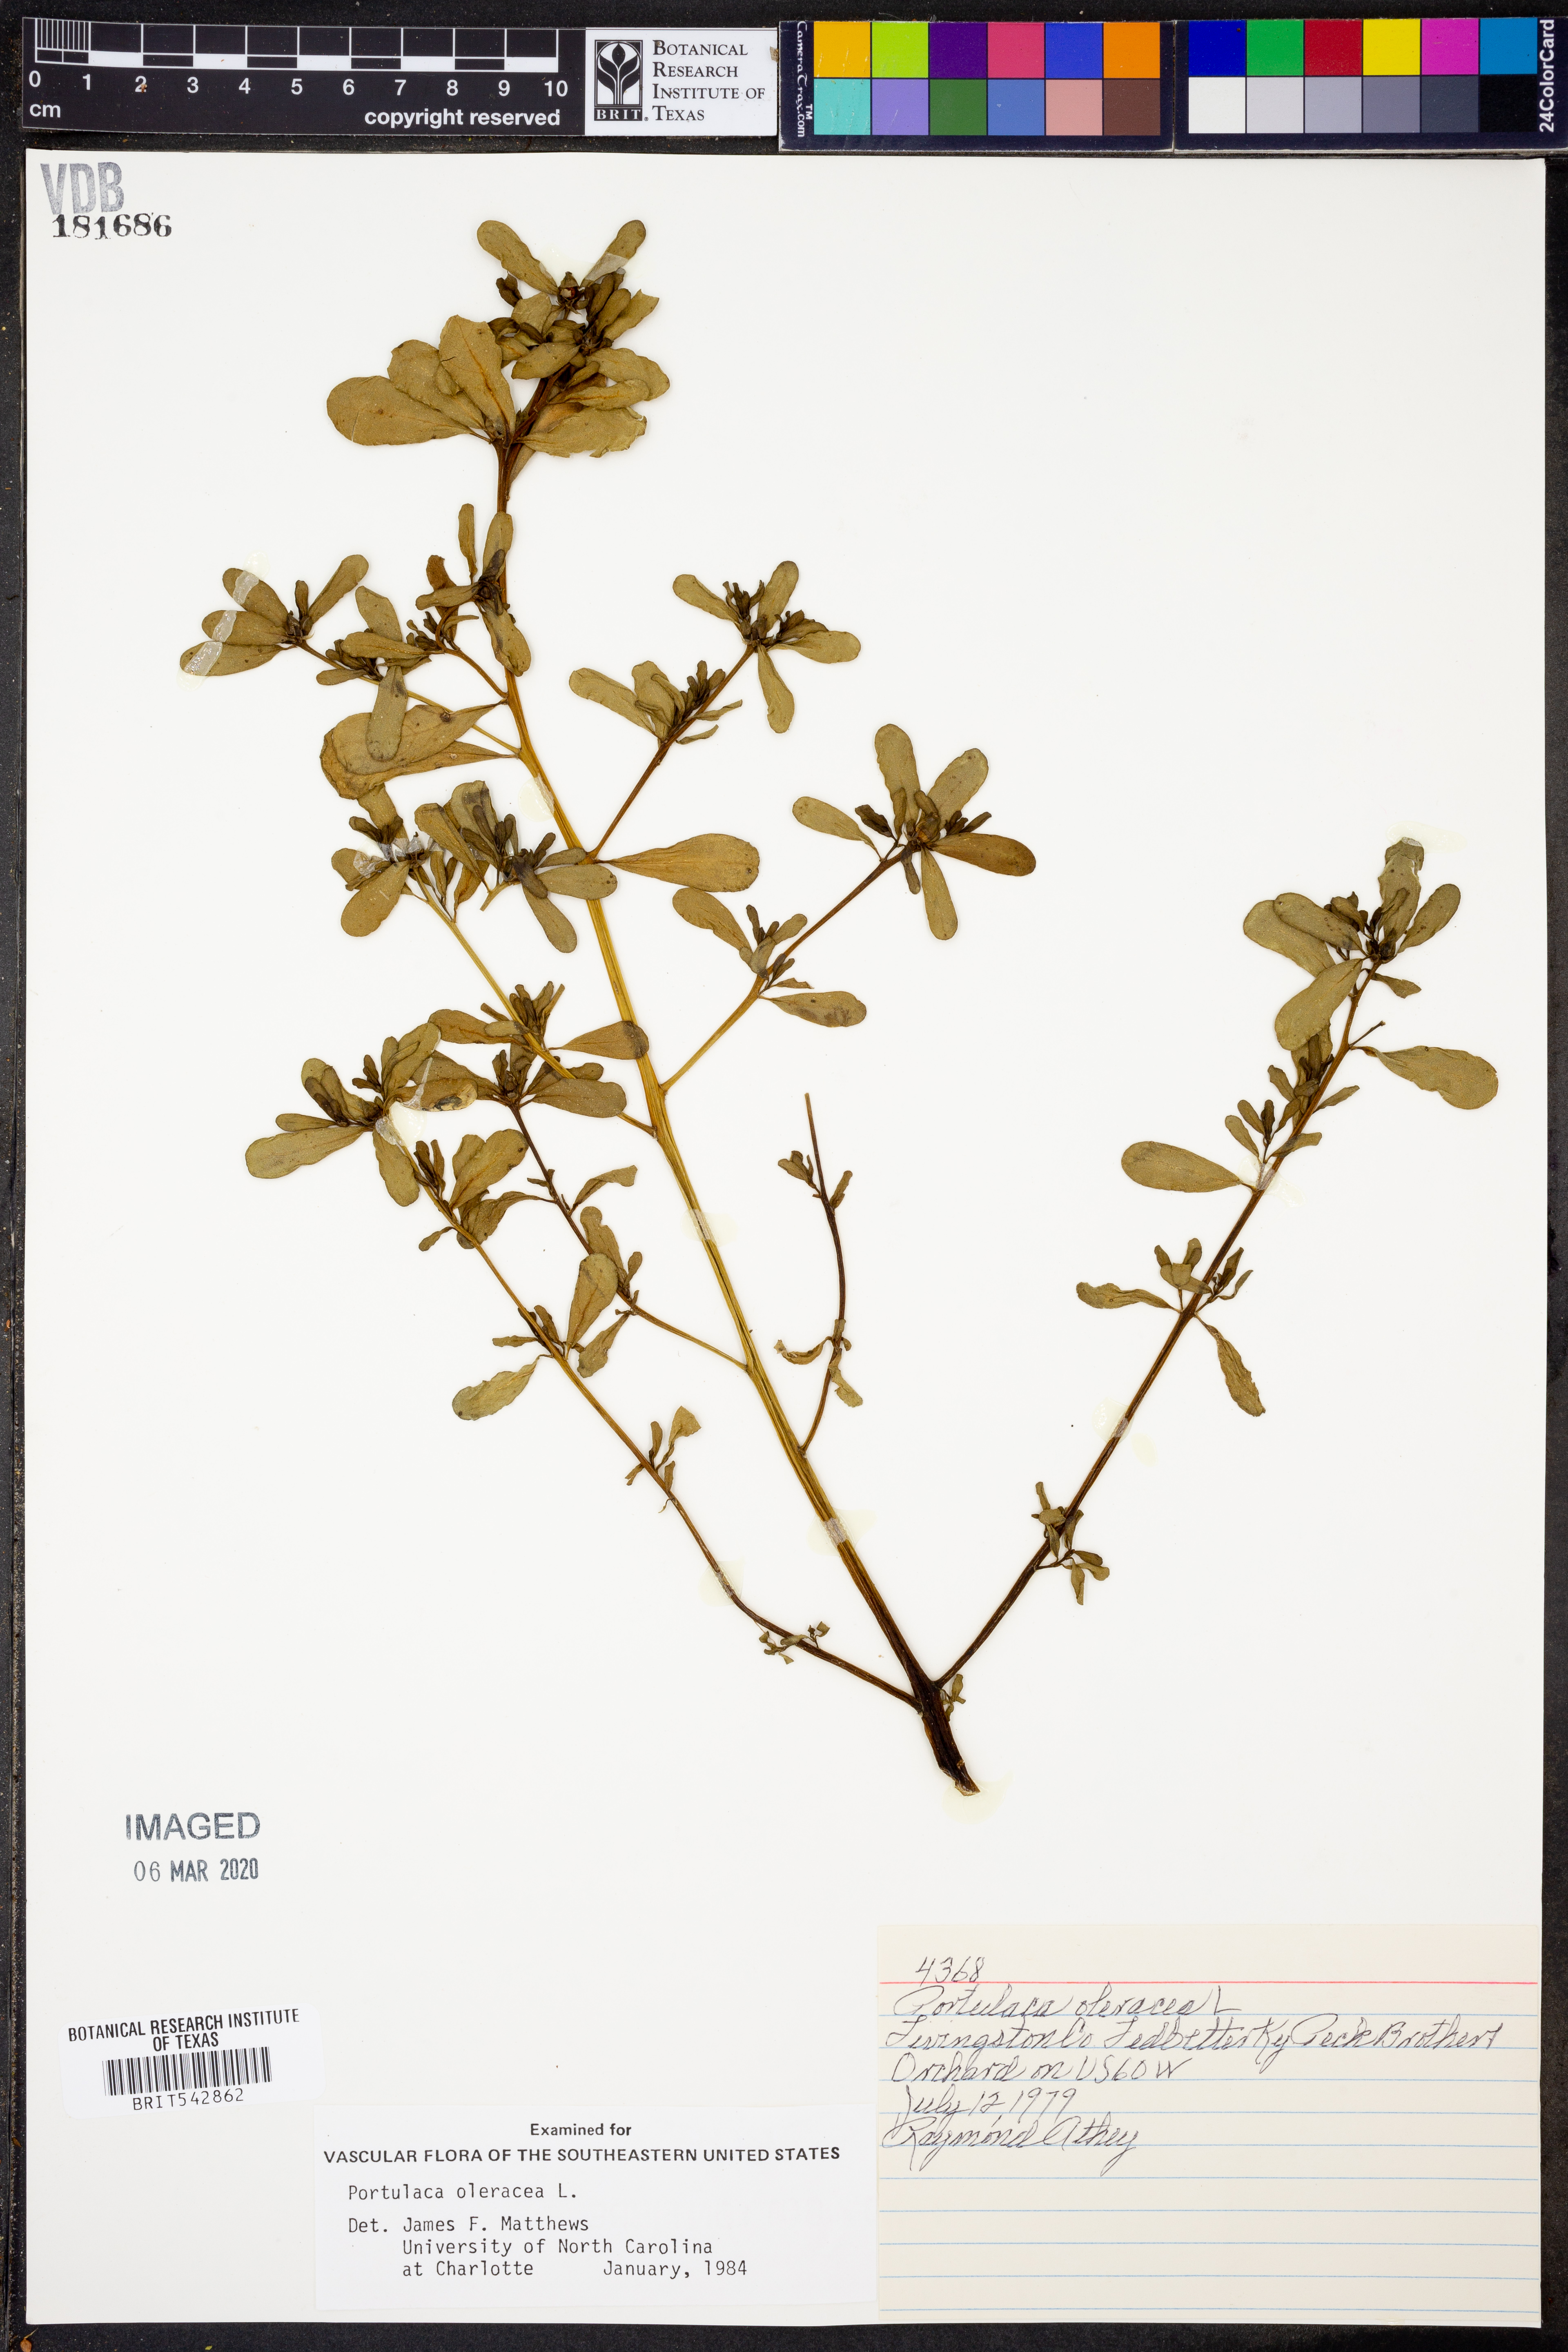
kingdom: Plantae
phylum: Tracheophyta
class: Magnoliopsida
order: Caryophyllales
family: Portulacaceae
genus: Portulaca
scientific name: Portulaca oleracea
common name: Common purslane
